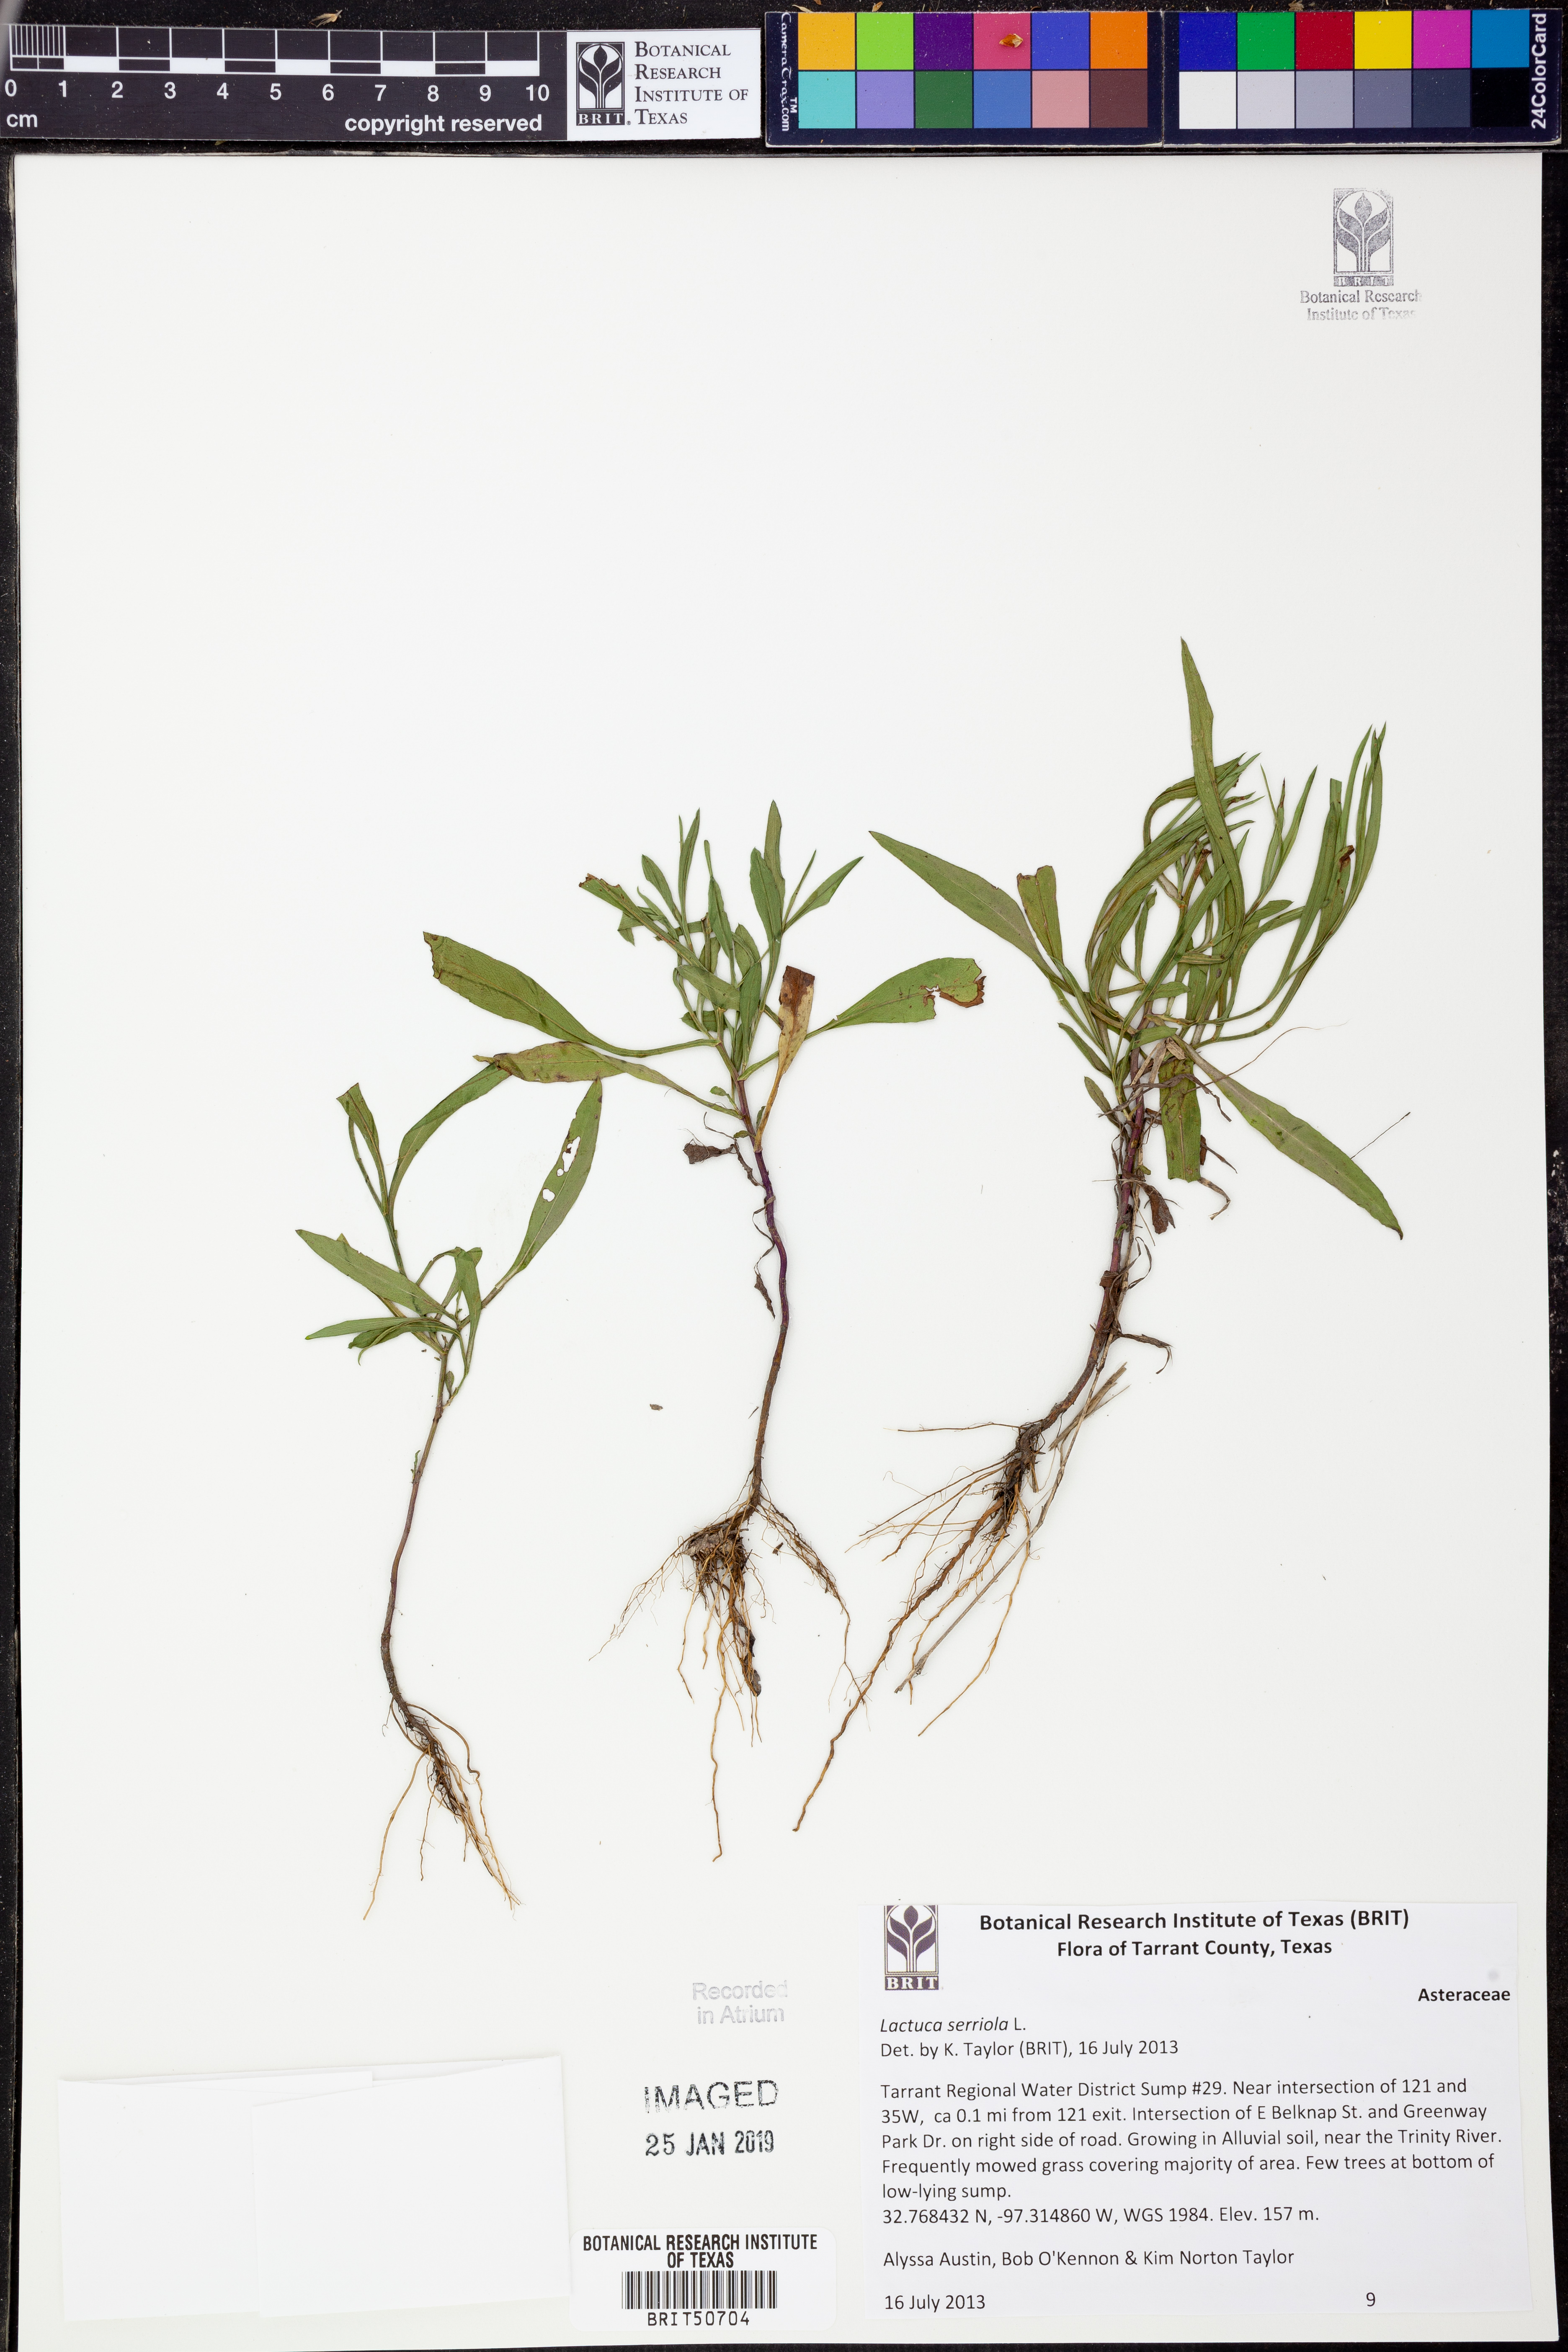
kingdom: Plantae
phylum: Tracheophyta
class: Magnoliopsida
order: Asterales
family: Asteraceae
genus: Lactuca
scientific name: Lactuca serriola
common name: Prickly lettuce
